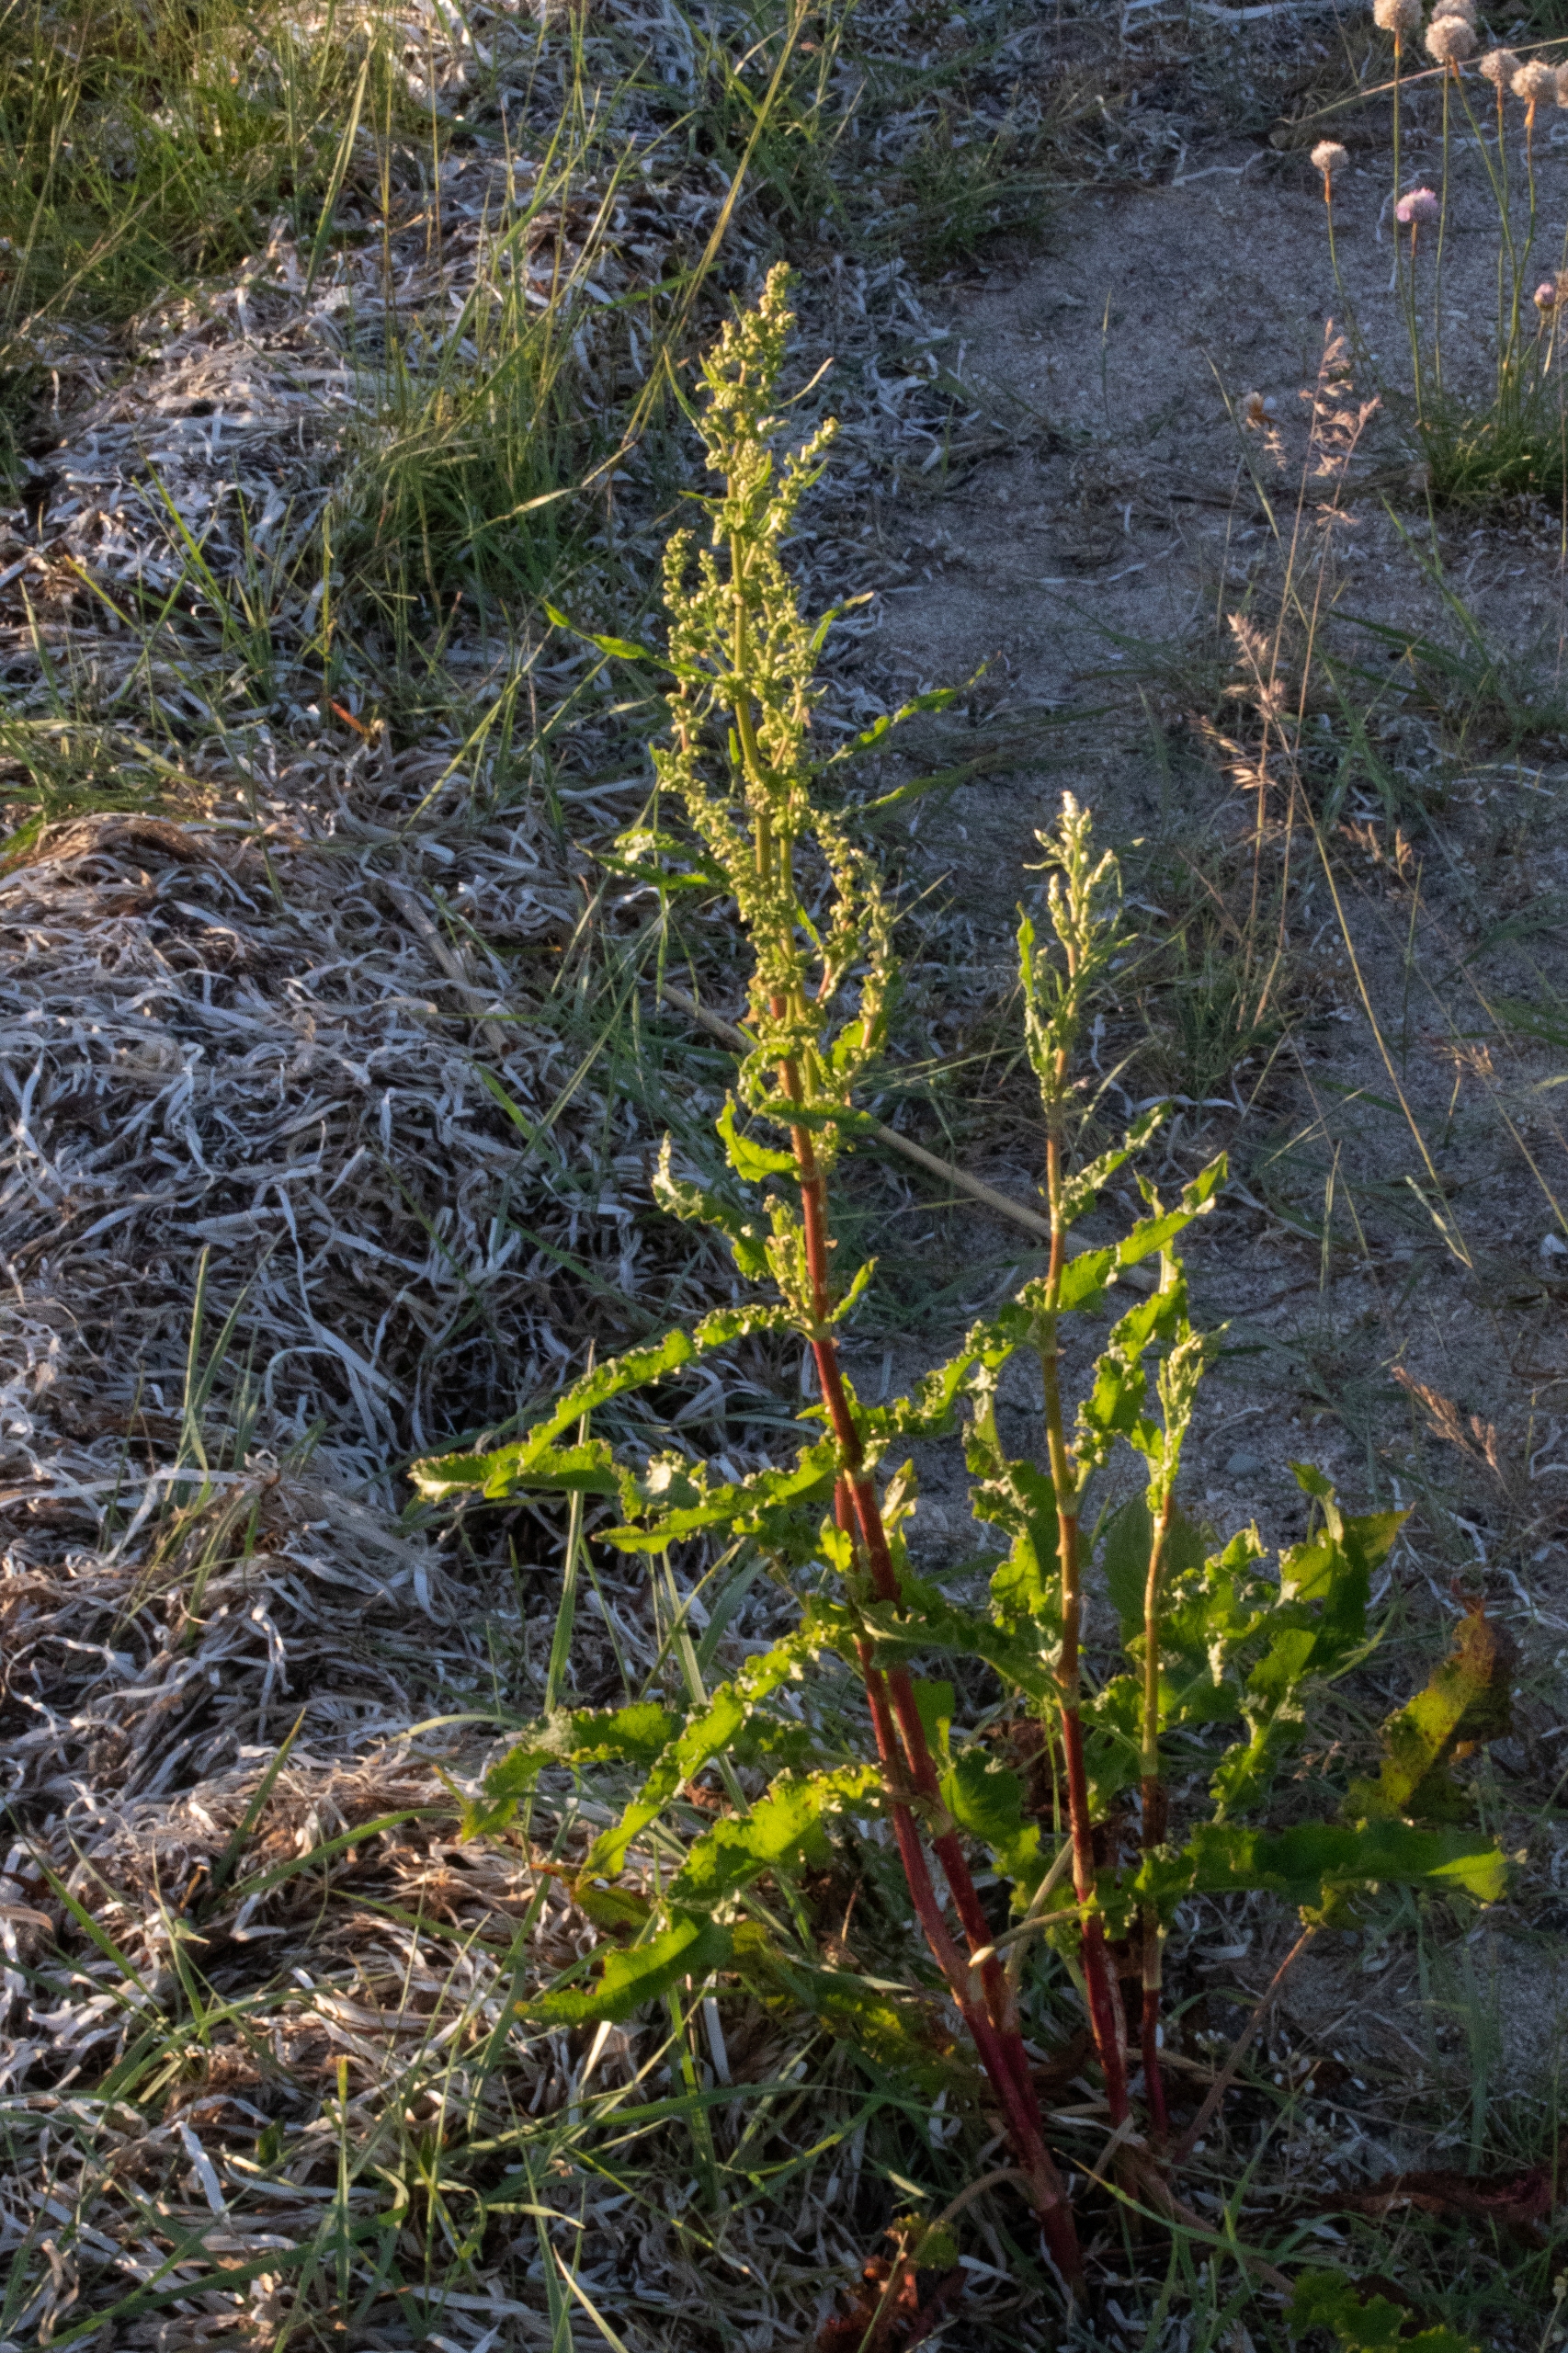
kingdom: Plantae
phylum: Tracheophyta
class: Magnoliopsida
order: Caryophyllales
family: Polygonaceae
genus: Rumex
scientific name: Rumex crispus
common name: Kruset skræppe
